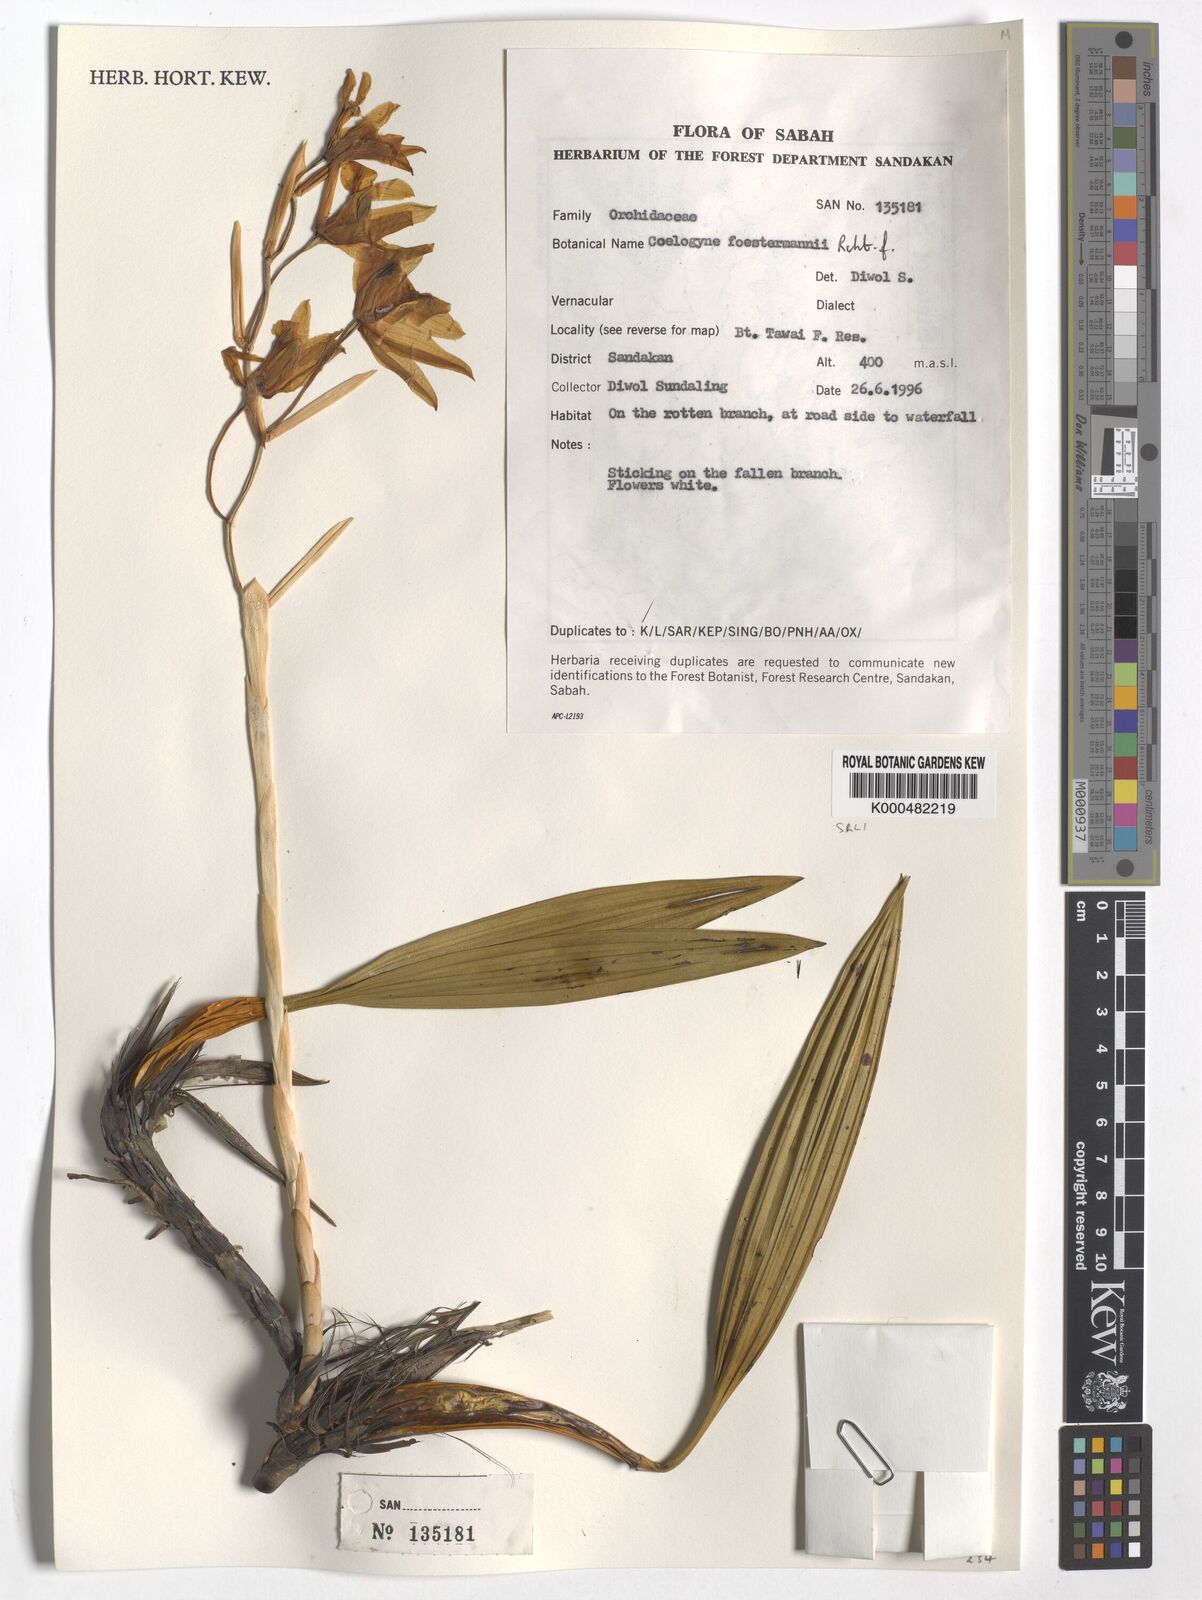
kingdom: Plantae
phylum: Tracheophyta
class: Liliopsida
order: Asparagales
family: Orchidaceae
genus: Coelogyne
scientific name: Coelogyne
